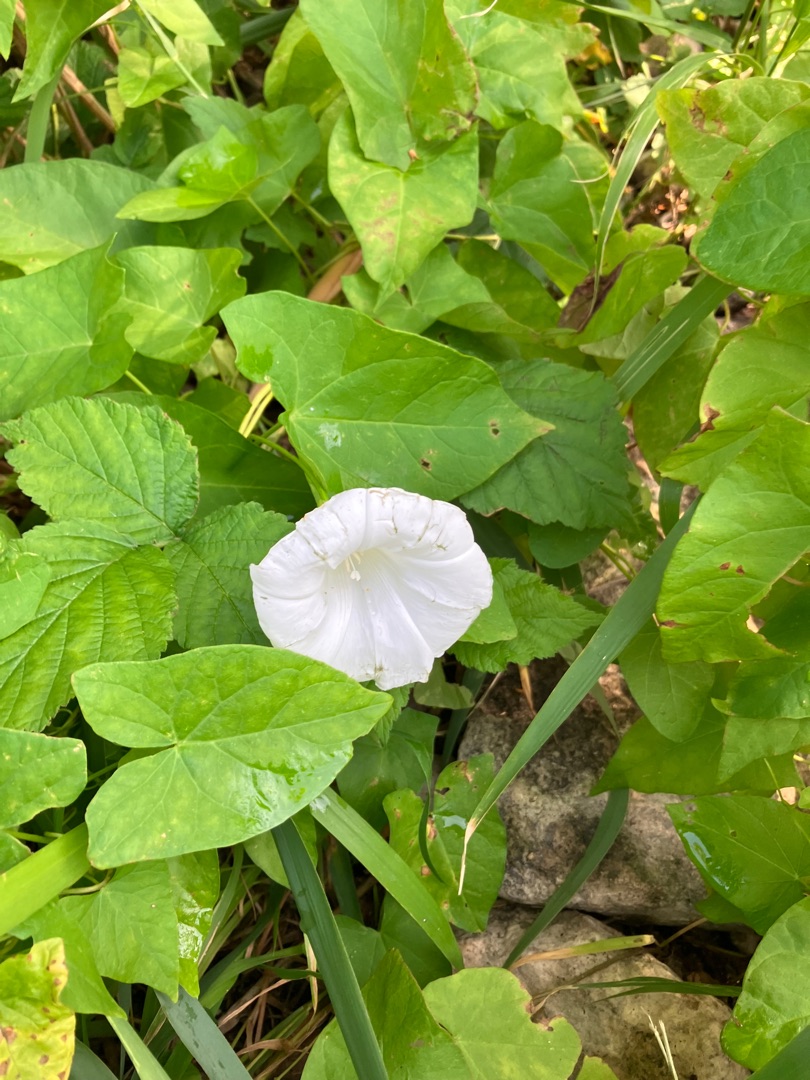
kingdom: Plantae
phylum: Tracheophyta
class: Magnoliopsida
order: Solanales
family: Convolvulaceae
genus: Calystegia
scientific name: Calystegia sepium
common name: Gærde-snerle
